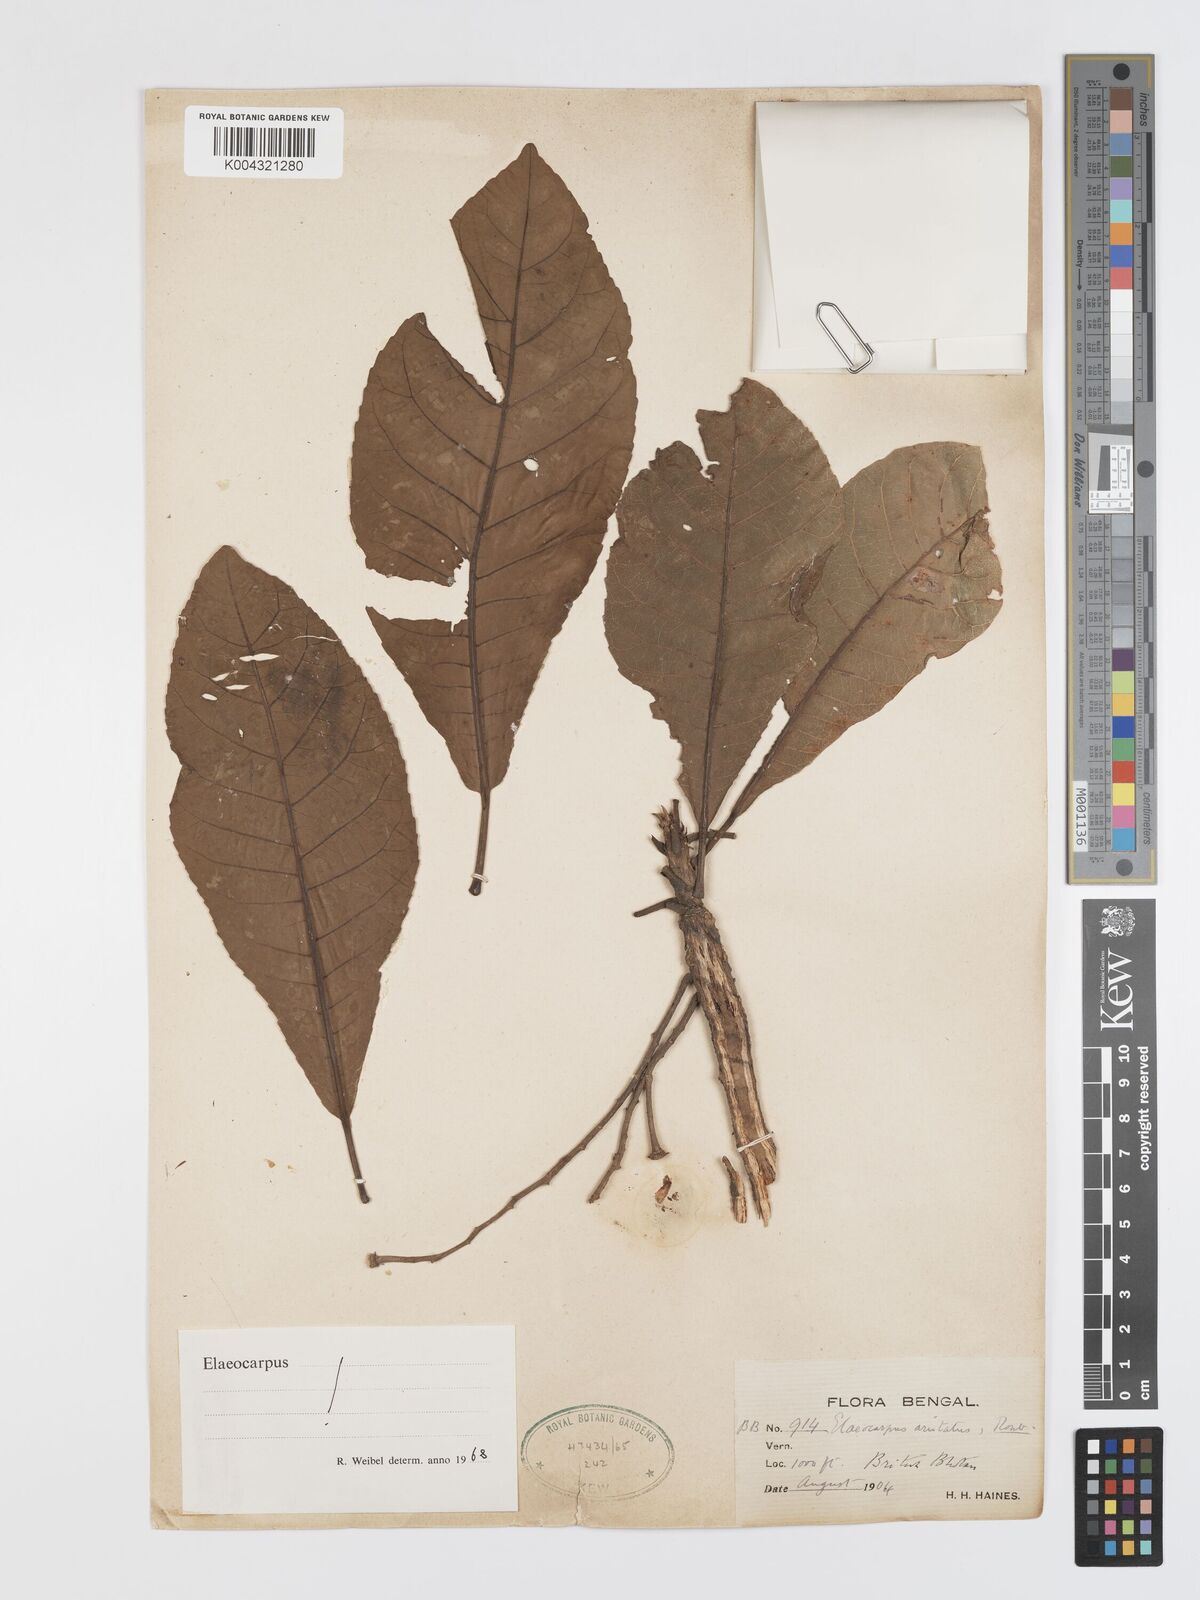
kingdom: Plantae
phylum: Tracheophyta
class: Magnoliopsida
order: Oxalidales
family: Elaeocarpaceae
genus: Elaeocarpus
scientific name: Elaeocarpus aristatus
